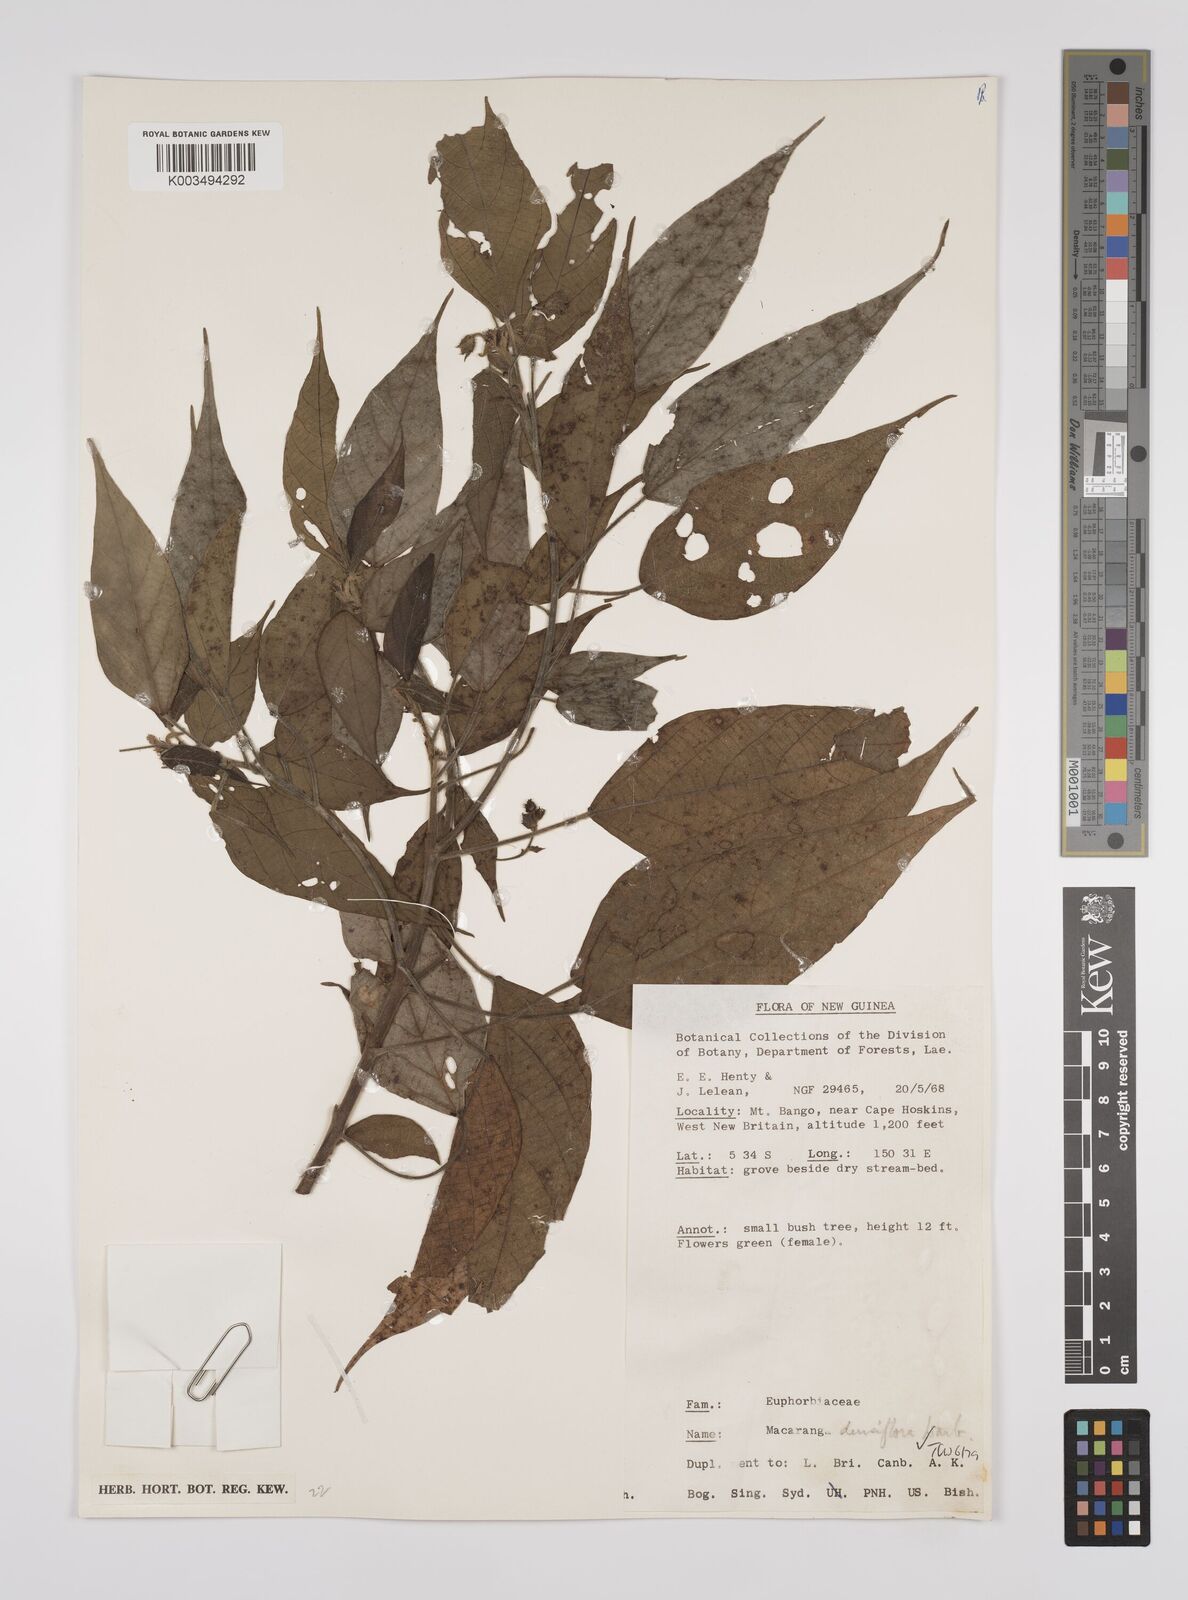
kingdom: Plantae
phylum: Tracheophyta
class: Magnoliopsida
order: Malpighiales
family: Euphorbiaceae
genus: Macaranga
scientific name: Macaranga densiflora
